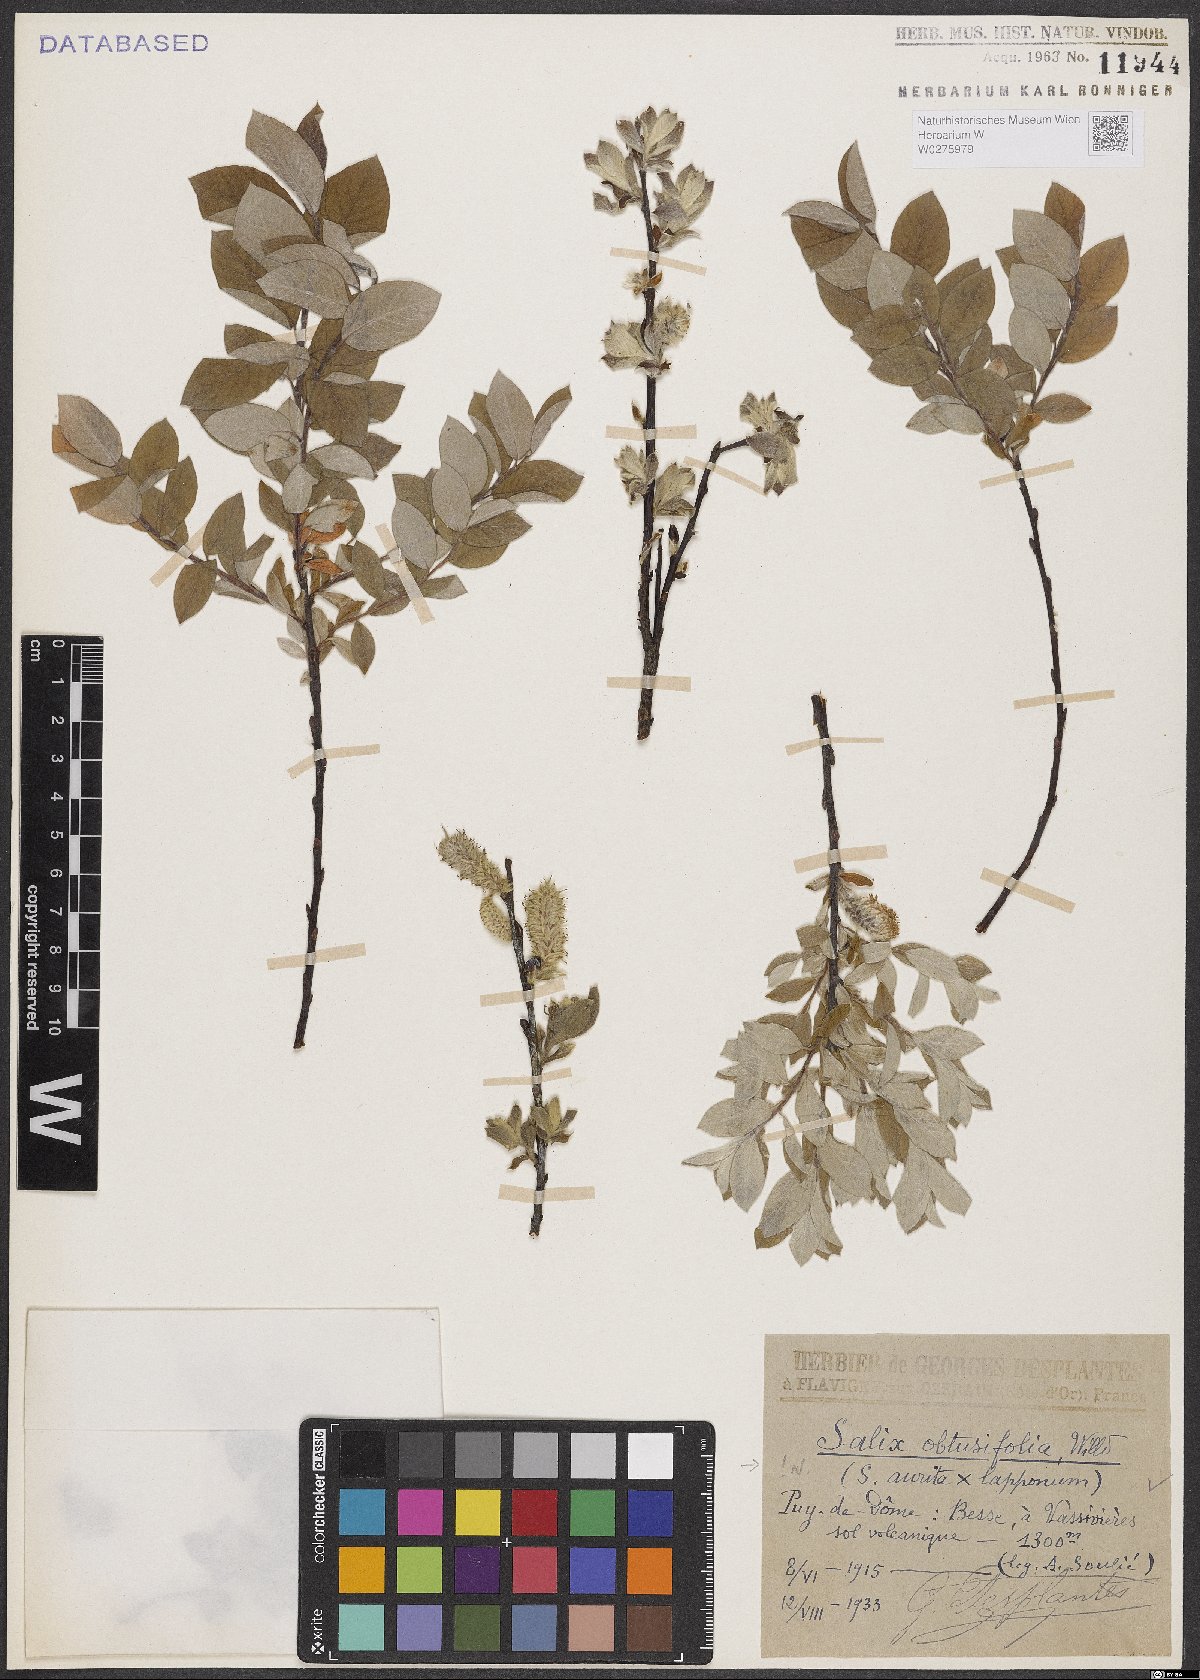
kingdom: Plantae
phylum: Tracheophyta
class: Magnoliopsida
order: Malpighiales
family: Salicaceae
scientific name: Salicaceae
